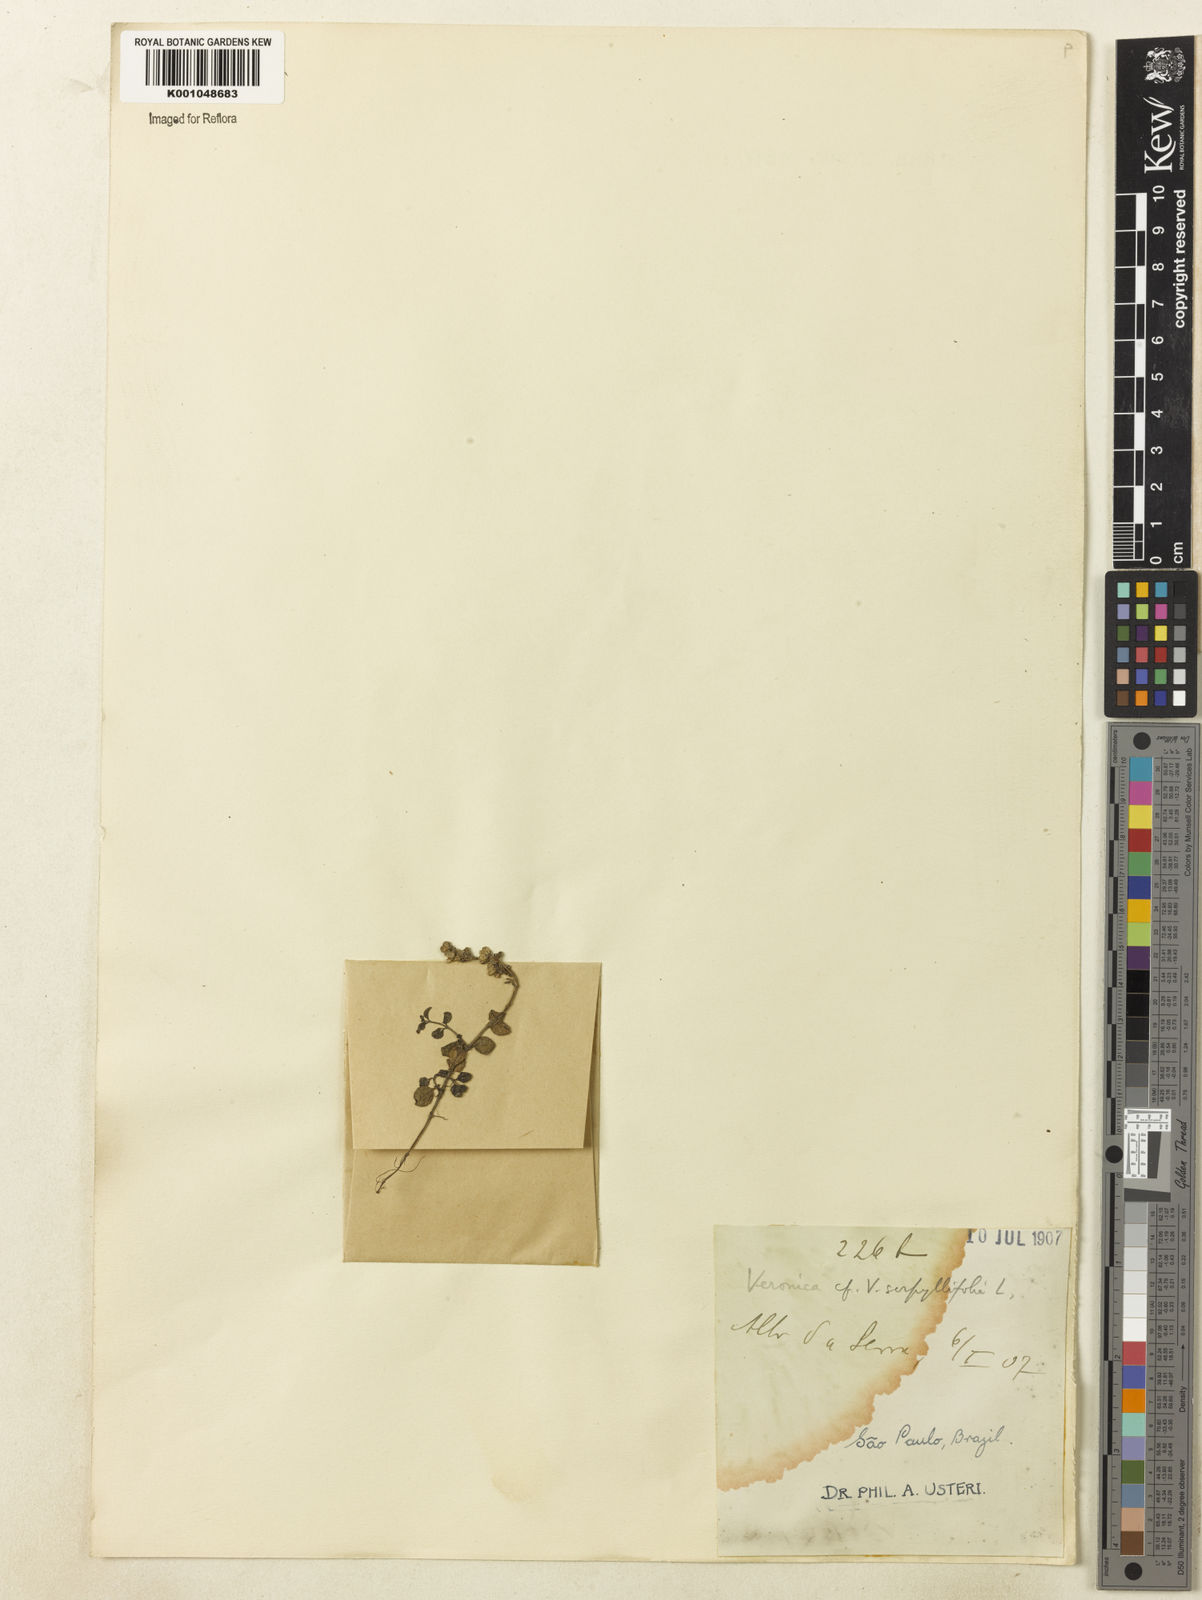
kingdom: Plantae
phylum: Tracheophyta
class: Magnoliopsida
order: Lamiales
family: Plantaginaceae
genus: Veronica
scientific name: Veronica serpyllifolia
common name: Thyme-leaved speedwell
